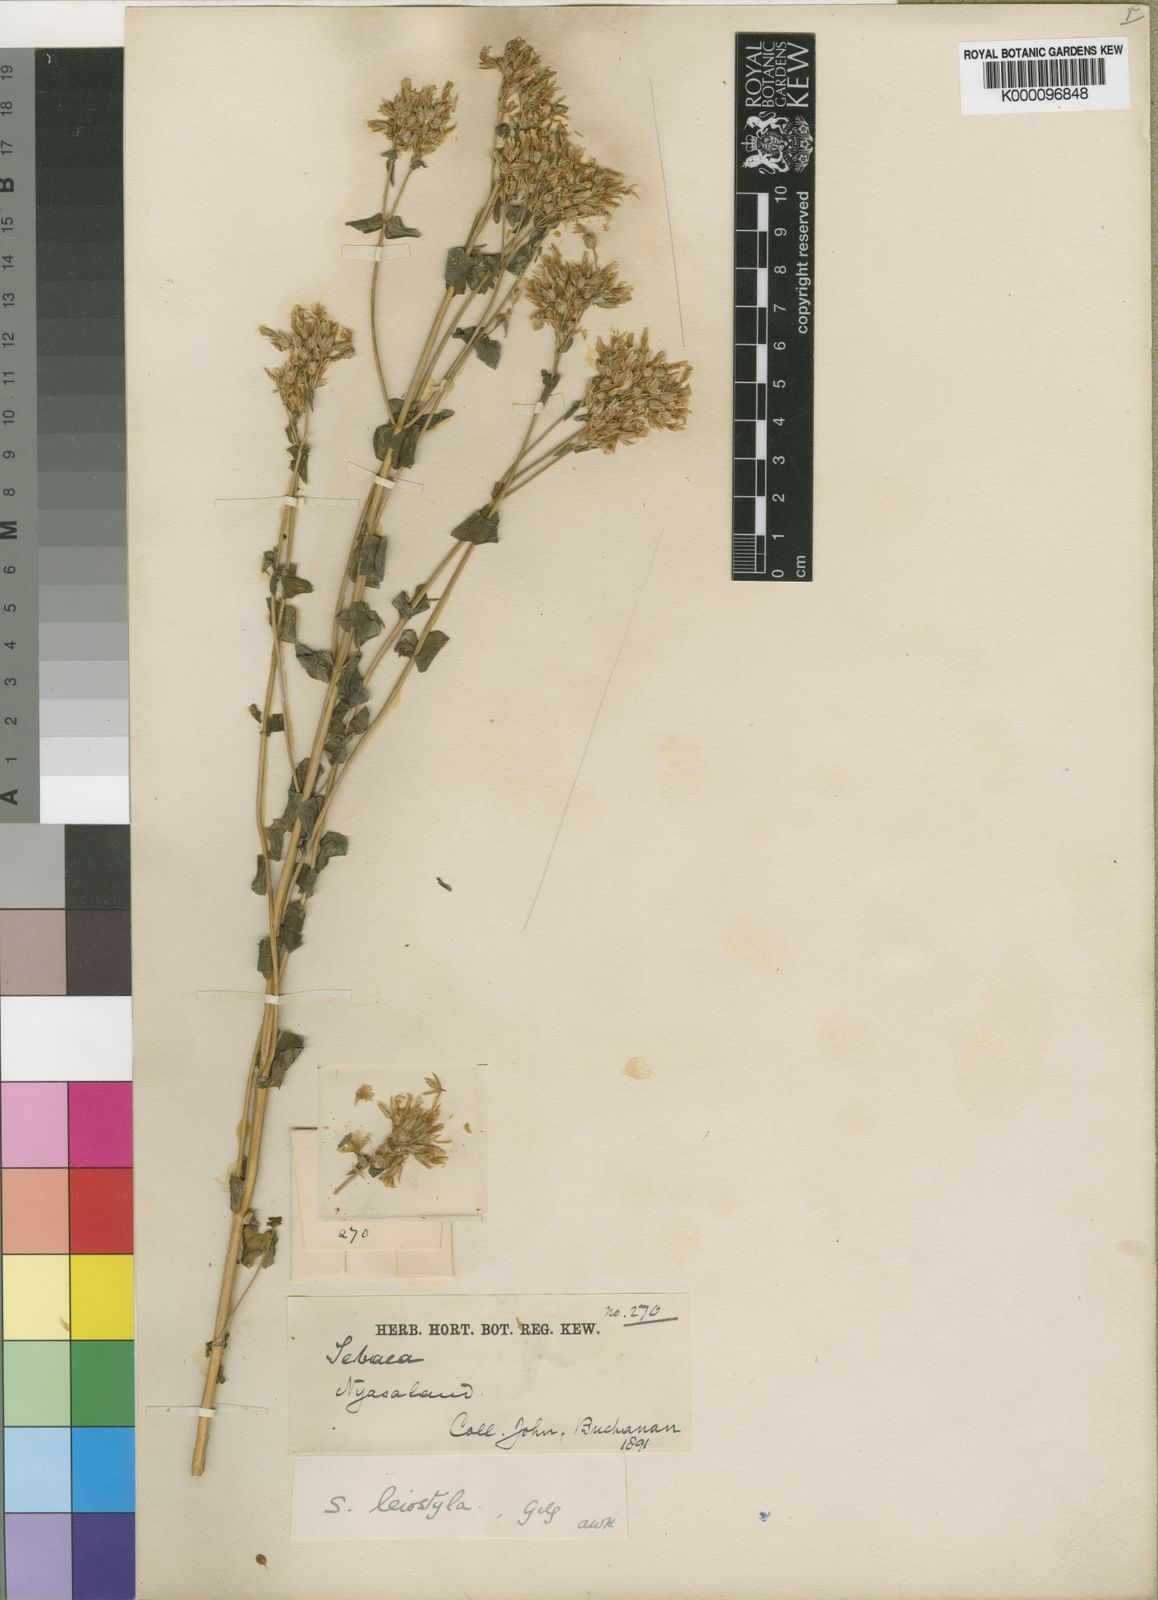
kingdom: Plantae
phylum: Tracheophyta
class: Magnoliopsida
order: Gentianales
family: Gentianaceae
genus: Sebaea
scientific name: Sebaea leiostyla
